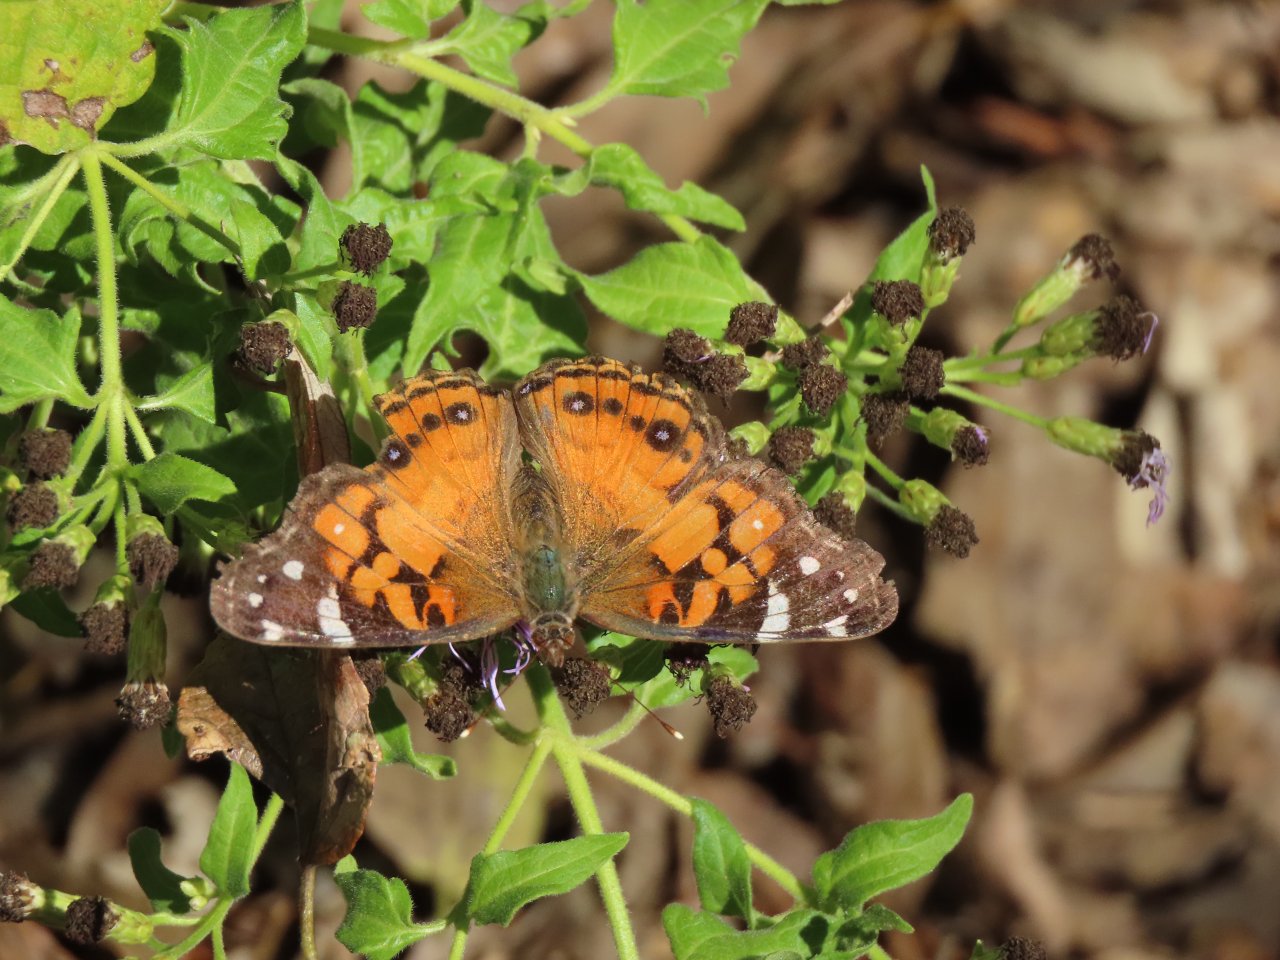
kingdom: Animalia
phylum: Arthropoda
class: Insecta
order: Lepidoptera
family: Nymphalidae
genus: Vanessa
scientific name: Vanessa virginiensis
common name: American Lady
